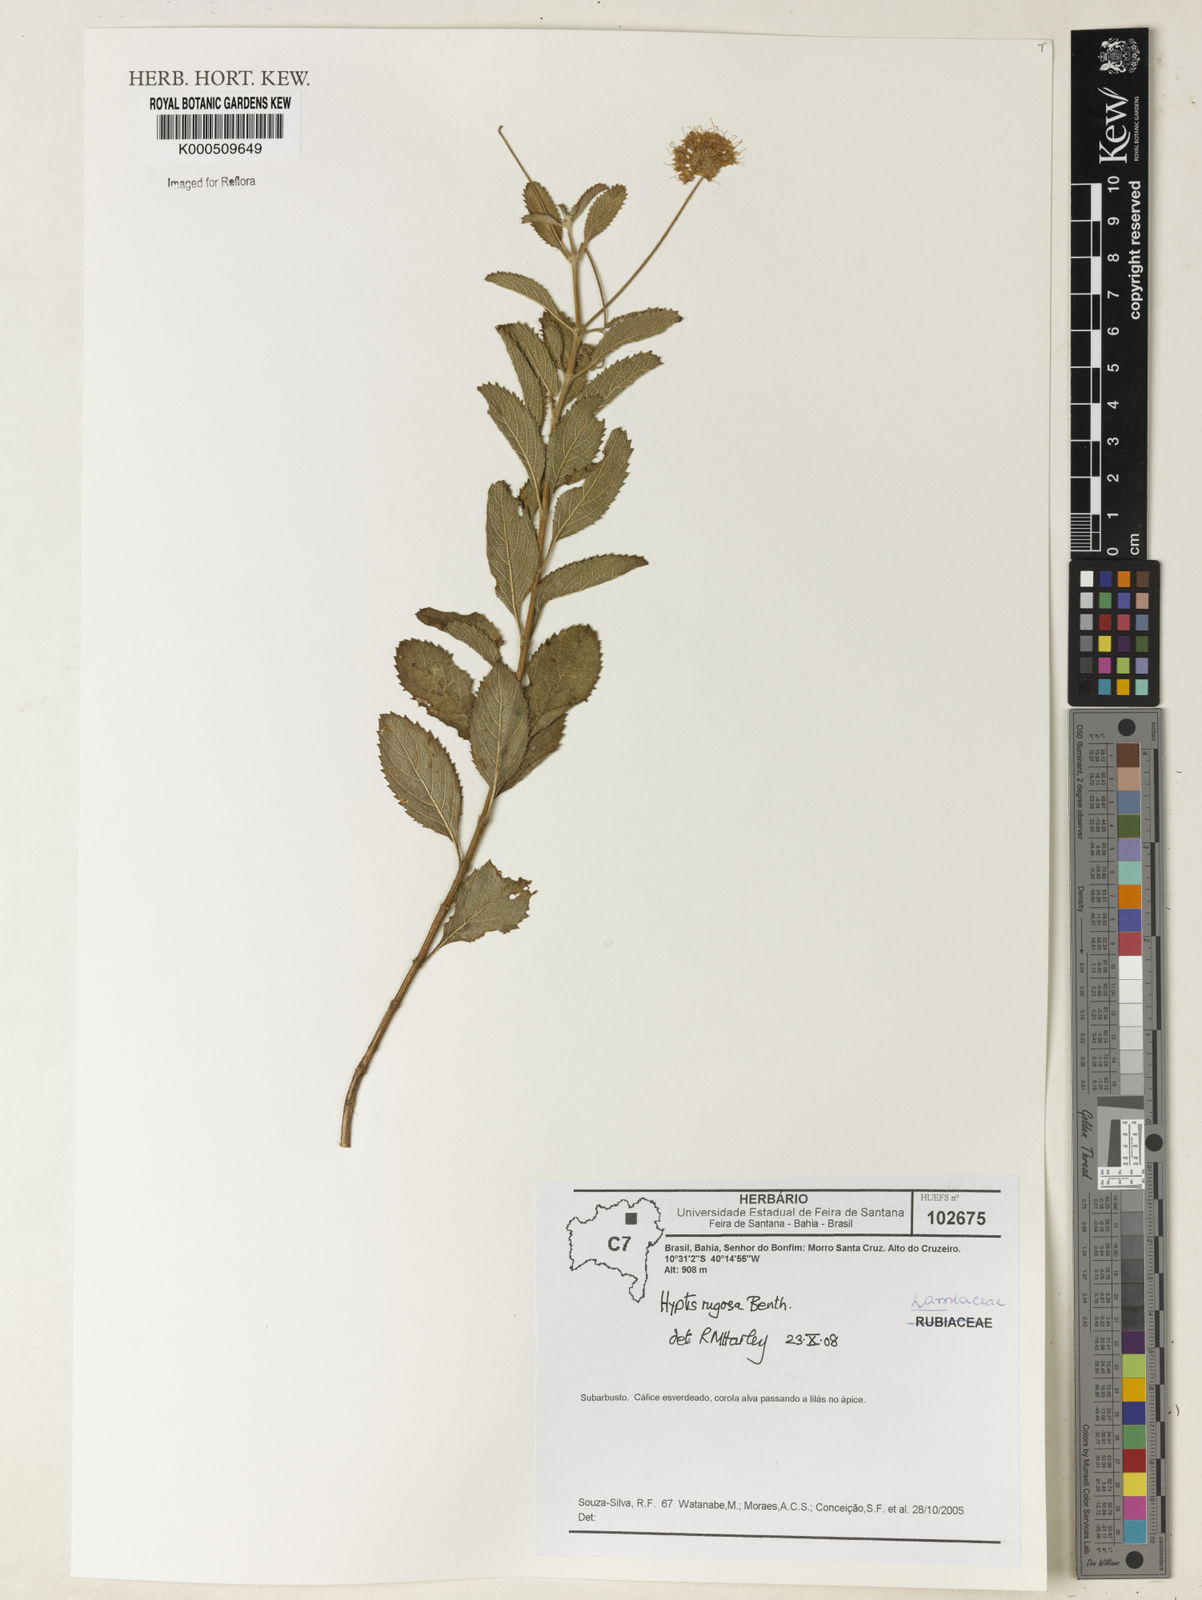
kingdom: Plantae
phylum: Tracheophyta
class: Magnoliopsida
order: Lamiales
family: Lamiaceae
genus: Cyanocephalus
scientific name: Cyanocephalus rugosus
